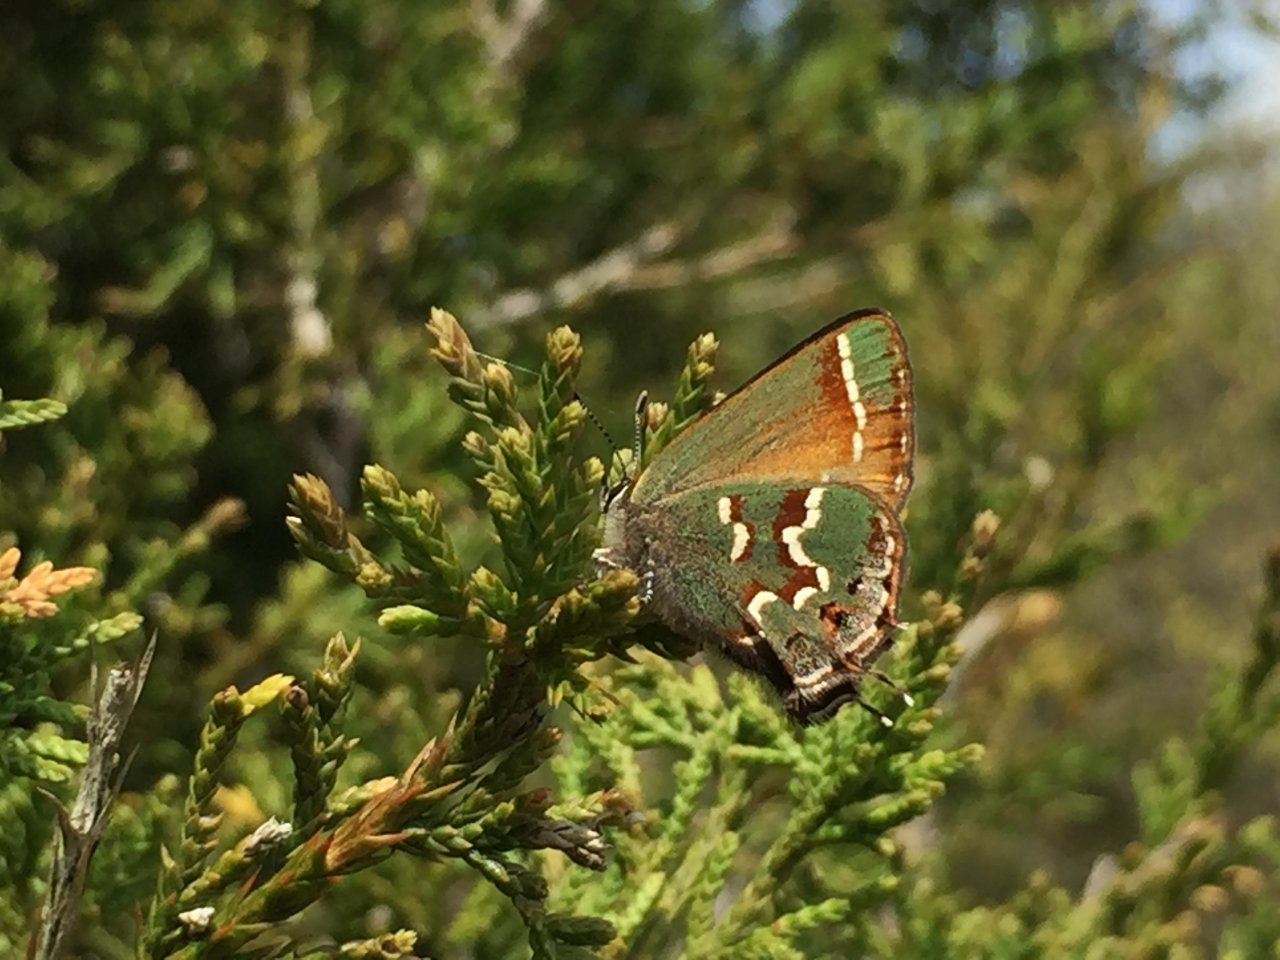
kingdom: Animalia
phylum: Arthropoda
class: Insecta
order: Lepidoptera
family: Lycaenidae
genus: Mitoura
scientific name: Mitoura gryneus
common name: Juniper Hairstreak
